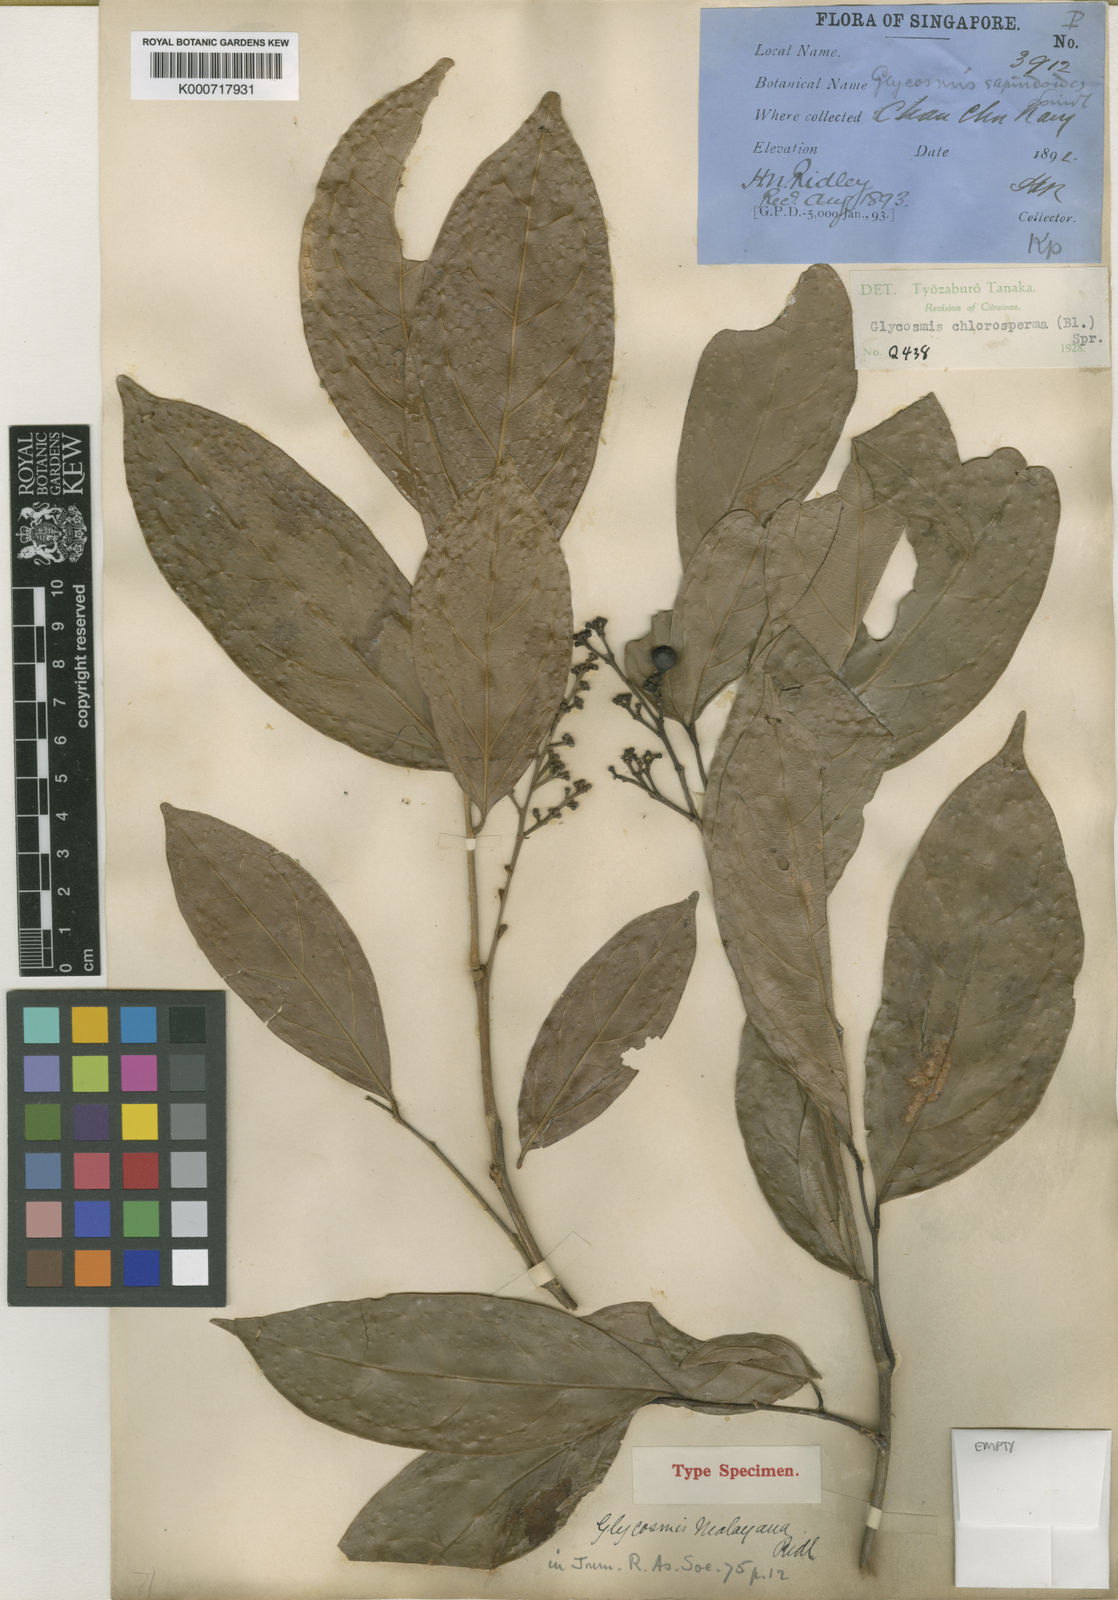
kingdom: Plantae
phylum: Tracheophyta
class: Magnoliopsida
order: Sapindales
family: Rutaceae
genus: Glycosmis
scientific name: Glycosmis chlorosperma
